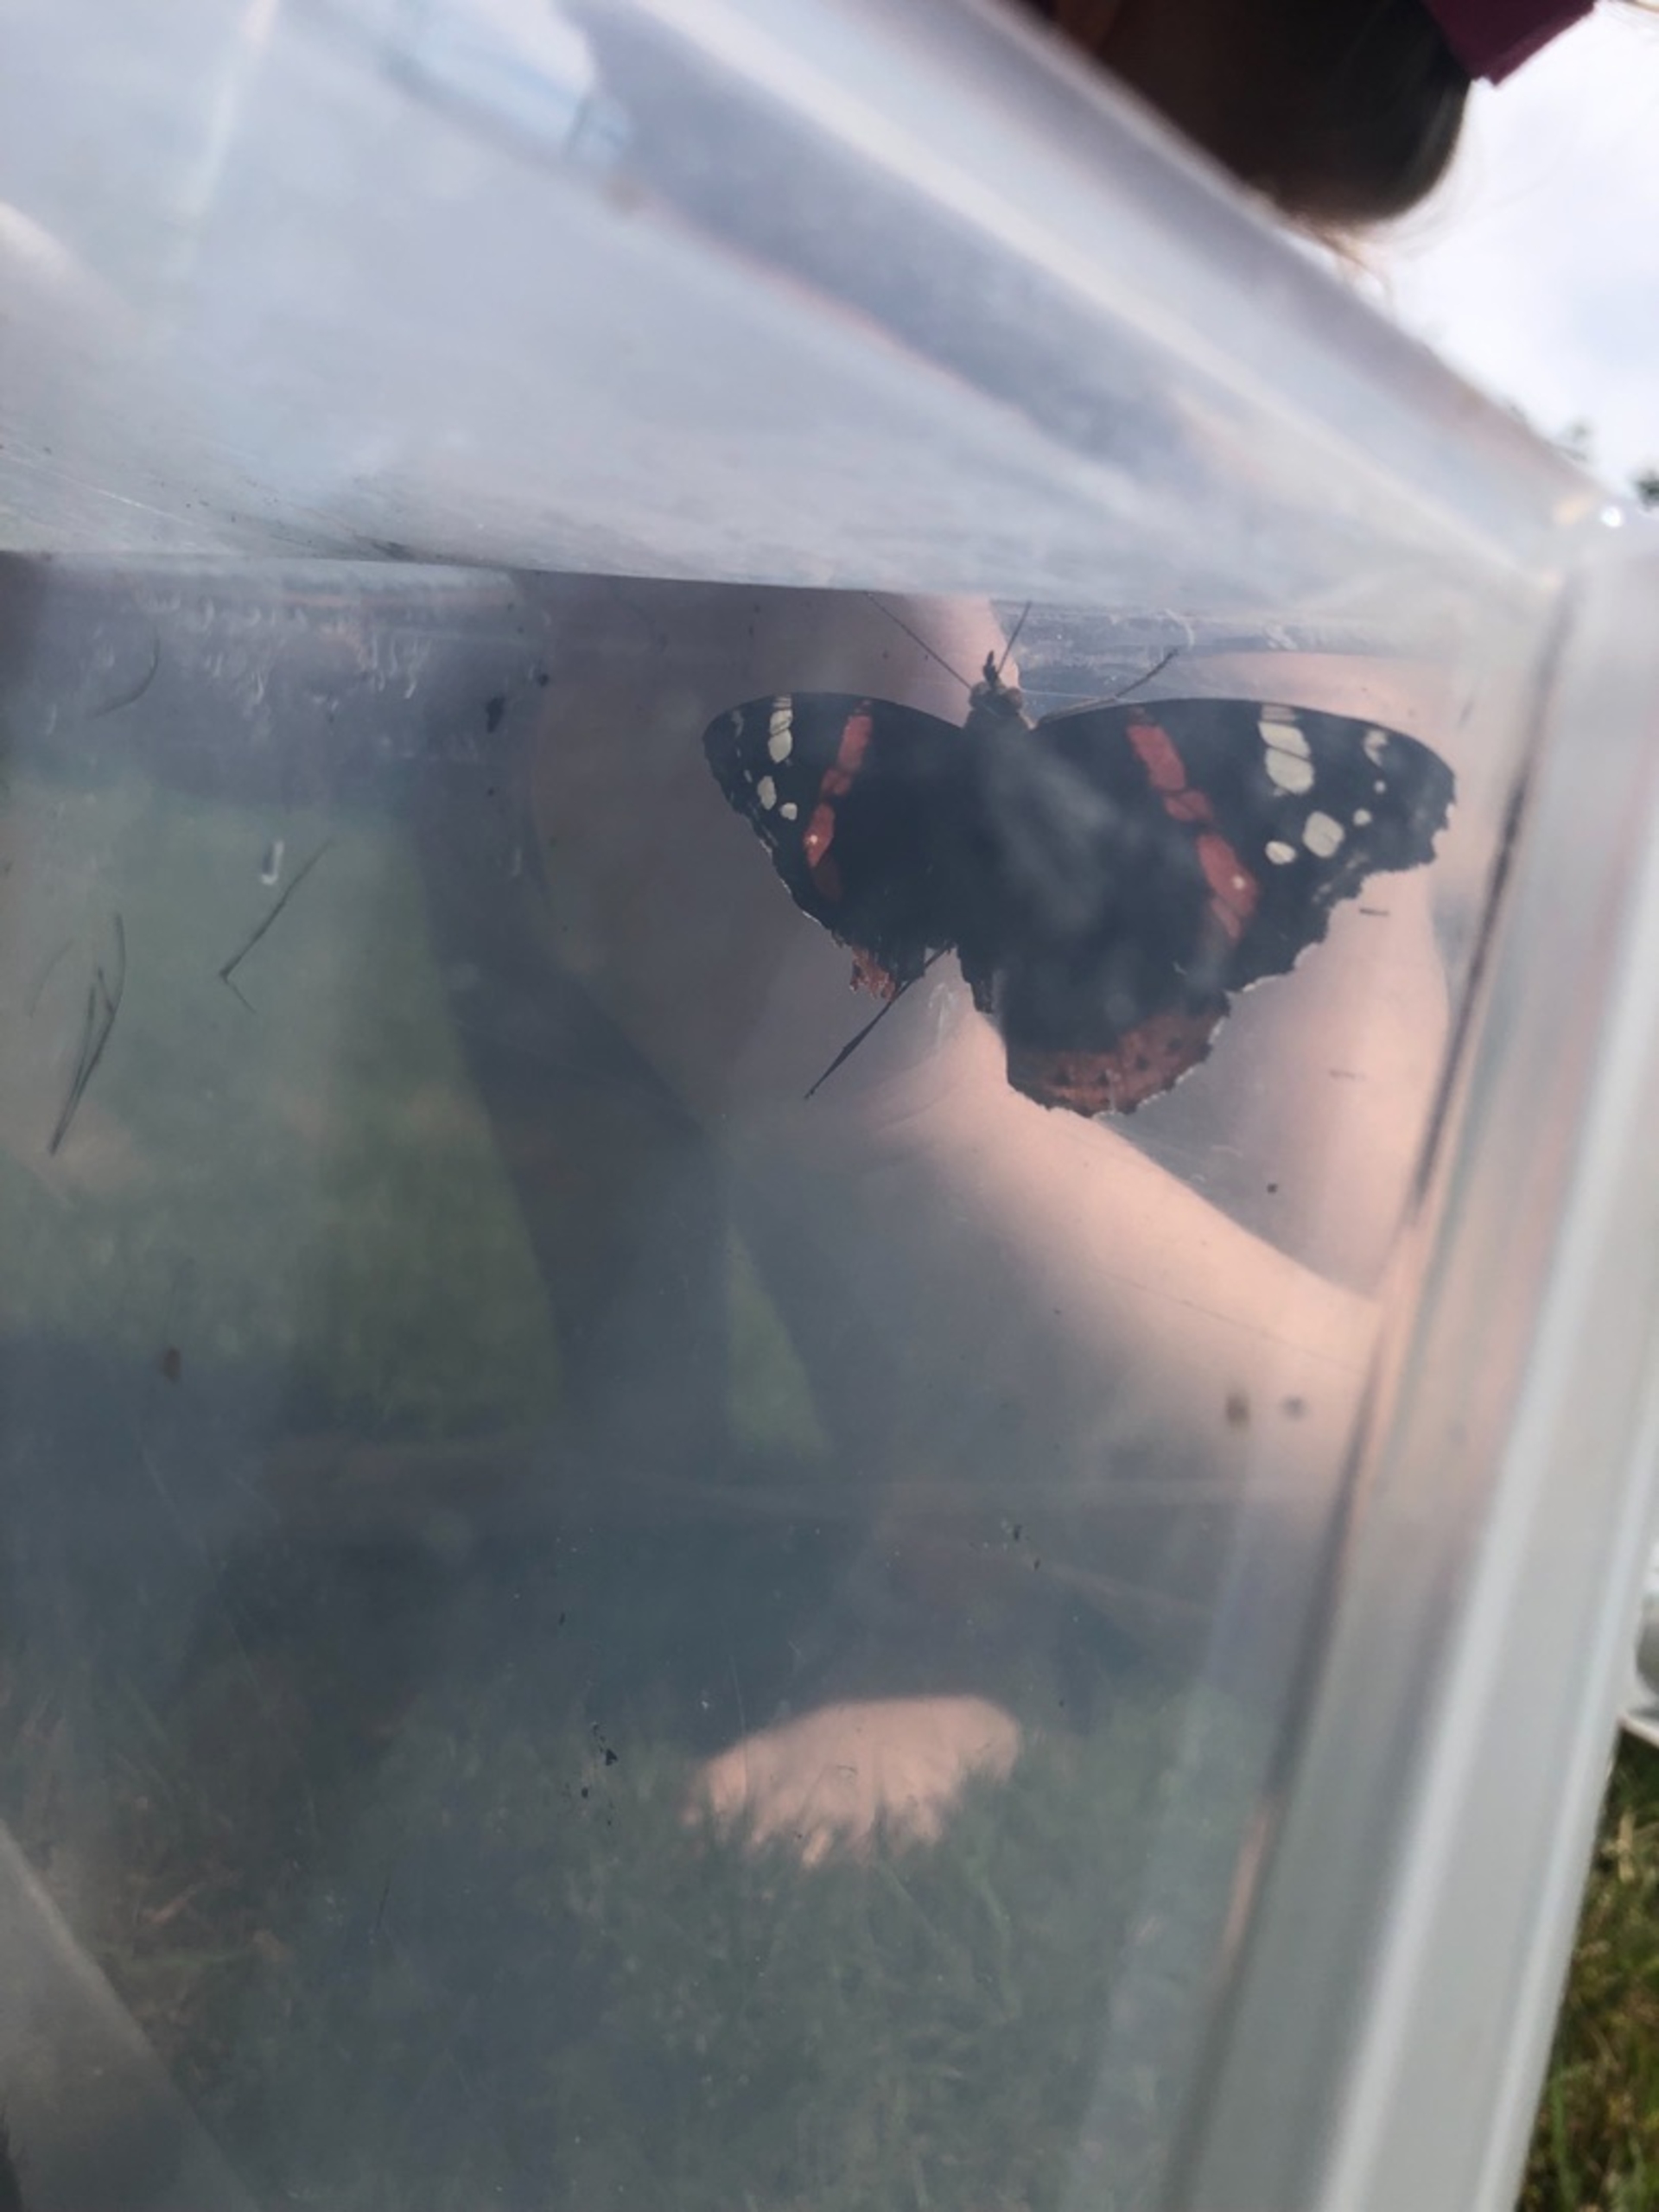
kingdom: Animalia
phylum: Arthropoda
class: Insecta
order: Lepidoptera
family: Nymphalidae
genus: Vanessa
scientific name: Vanessa atalanta
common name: Admiral
